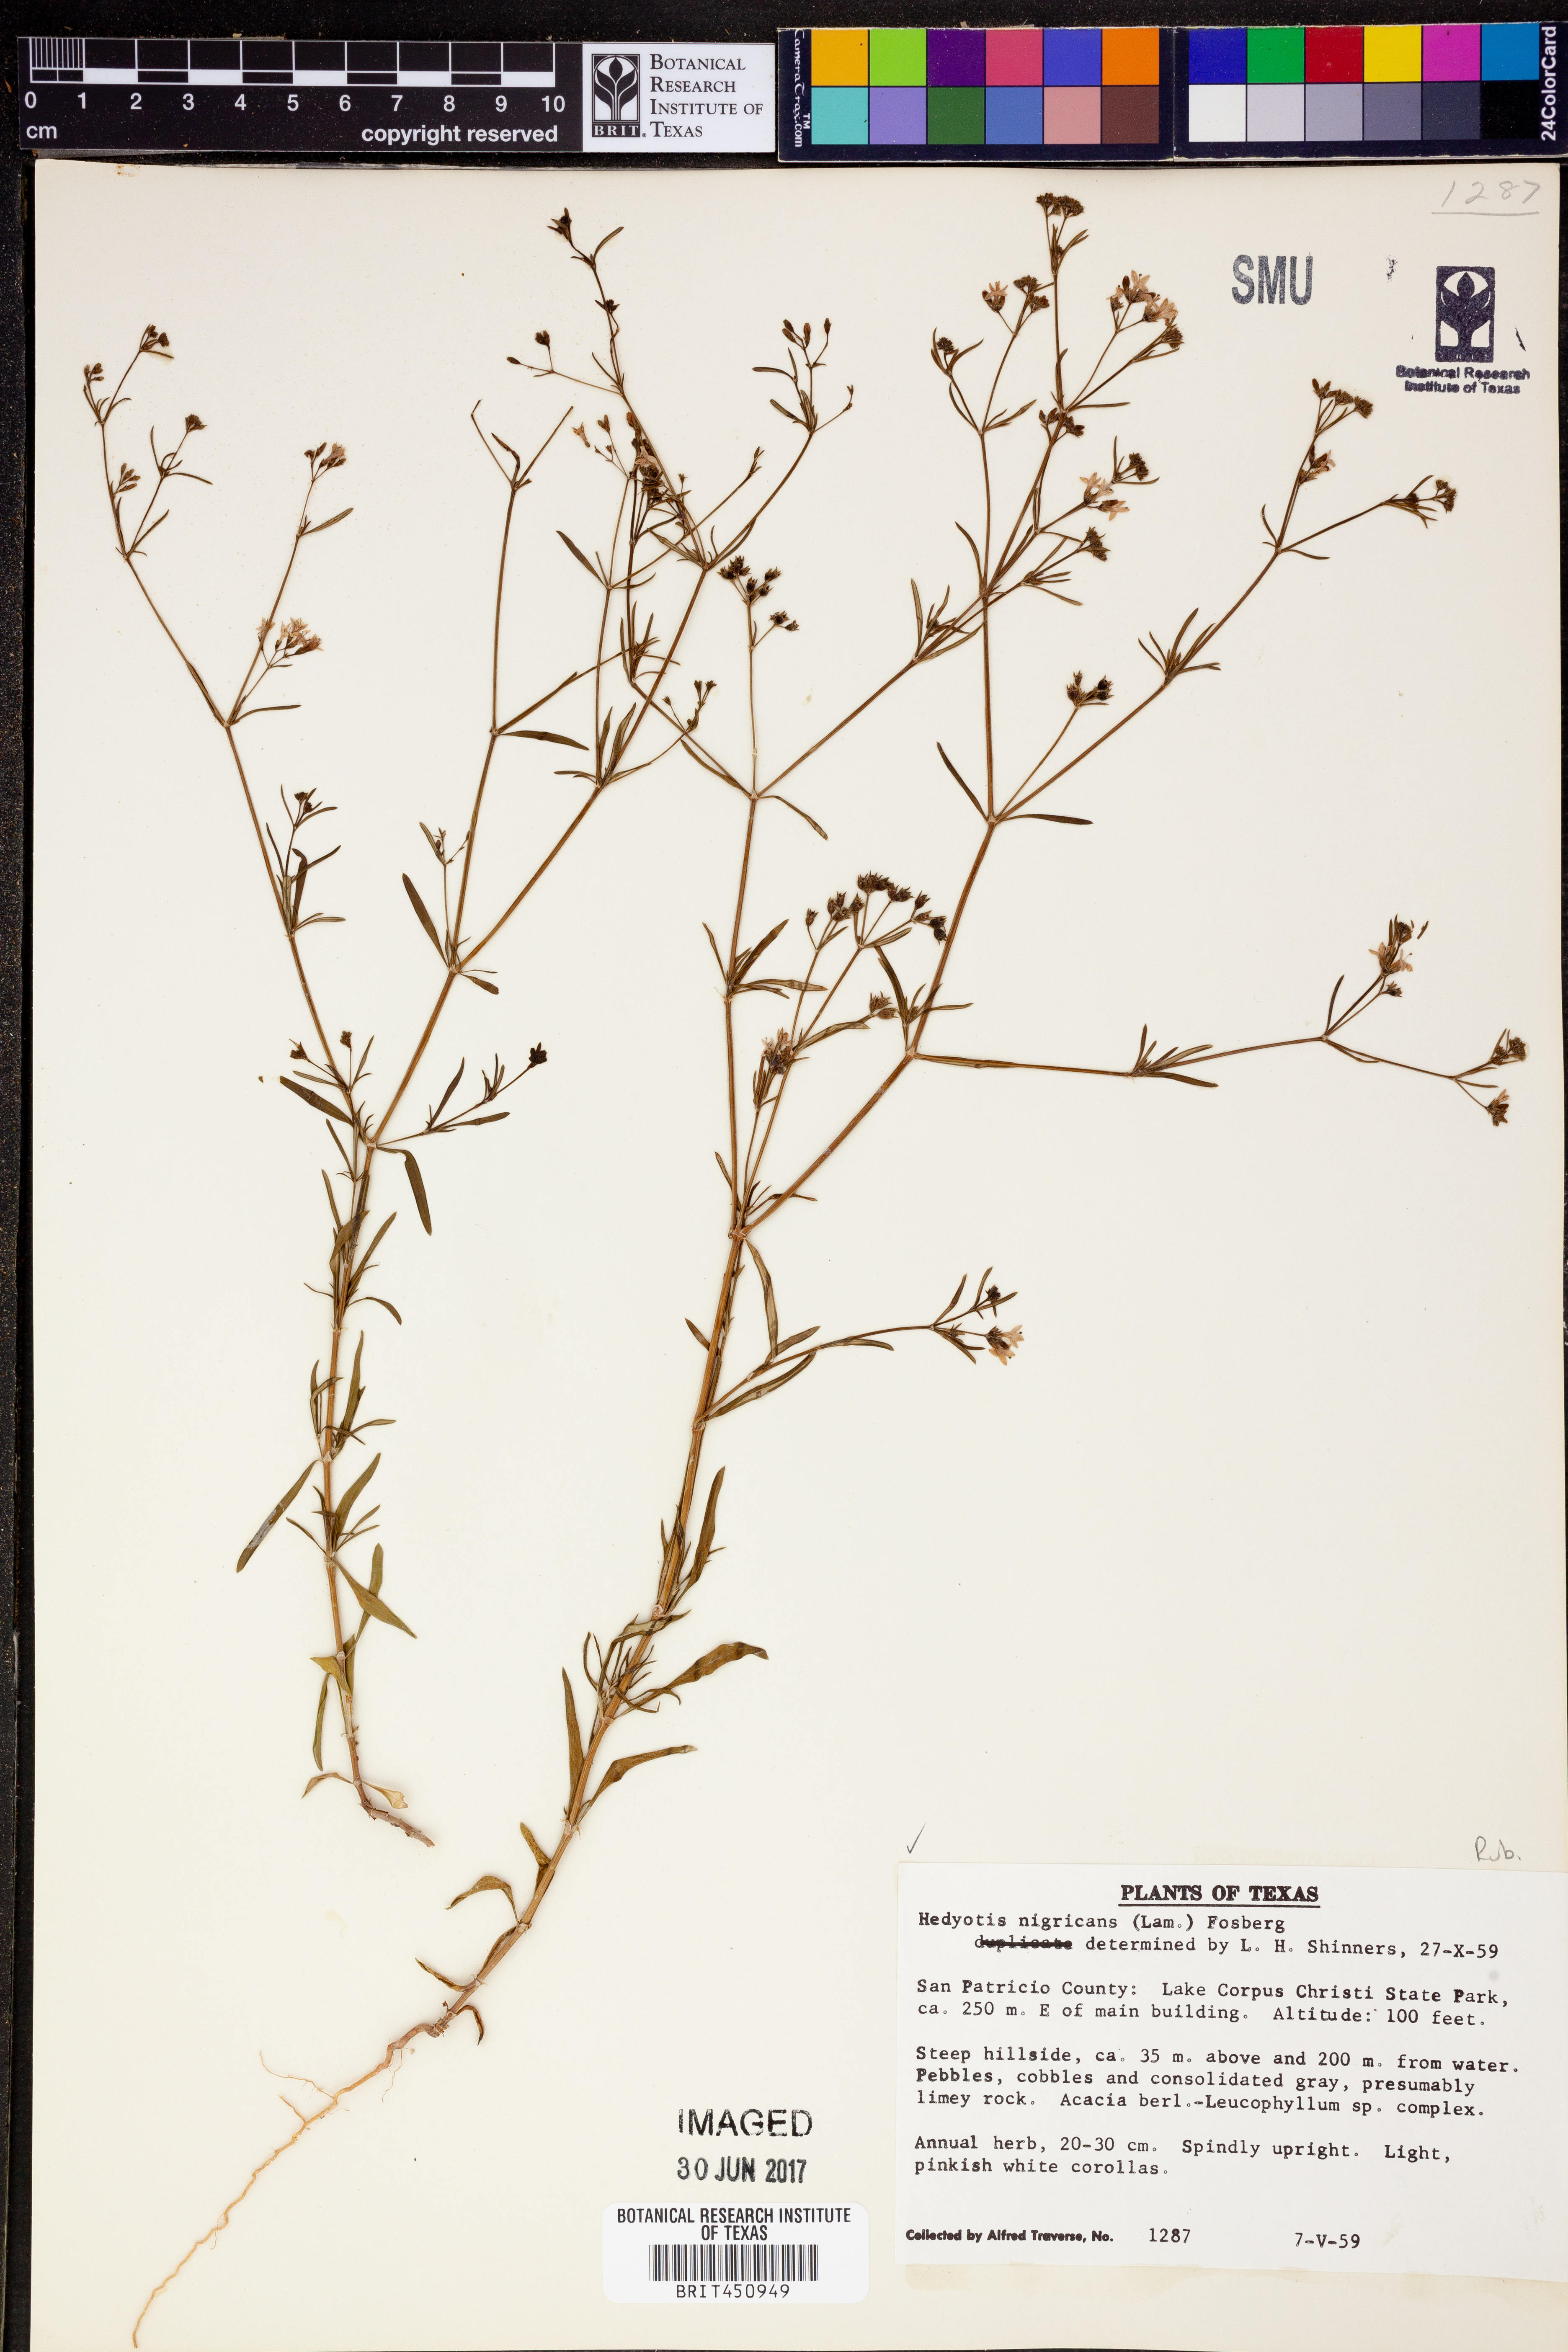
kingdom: Plantae
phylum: Tracheophyta
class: Magnoliopsida
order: Gentianales
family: Rubiaceae
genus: Stenaria
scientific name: Stenaria nigricans
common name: Diamondflowers
